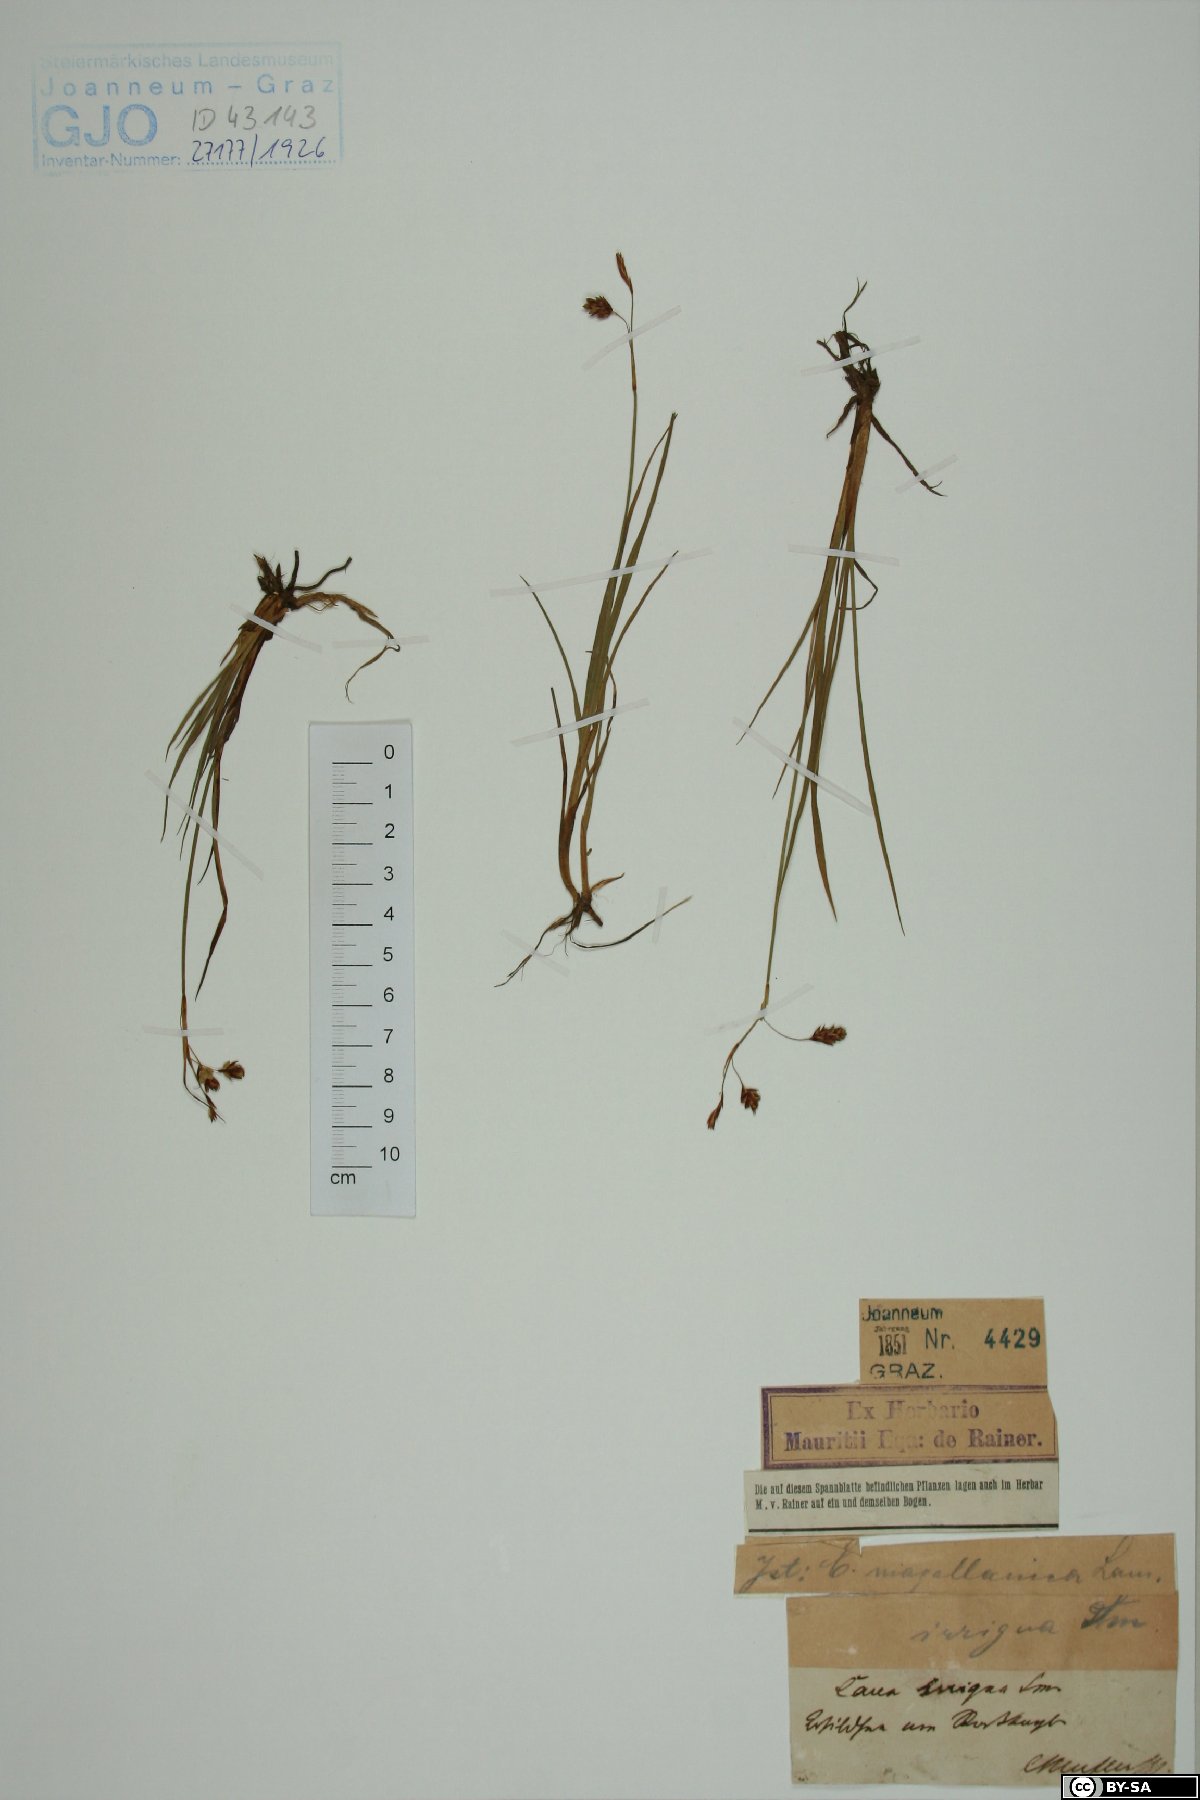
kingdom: Plantae
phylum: Tracheophyta
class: Liliopsida
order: Poales
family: Cyperaceae
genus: Carex
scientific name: Carex magellanica
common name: Bog sedge
